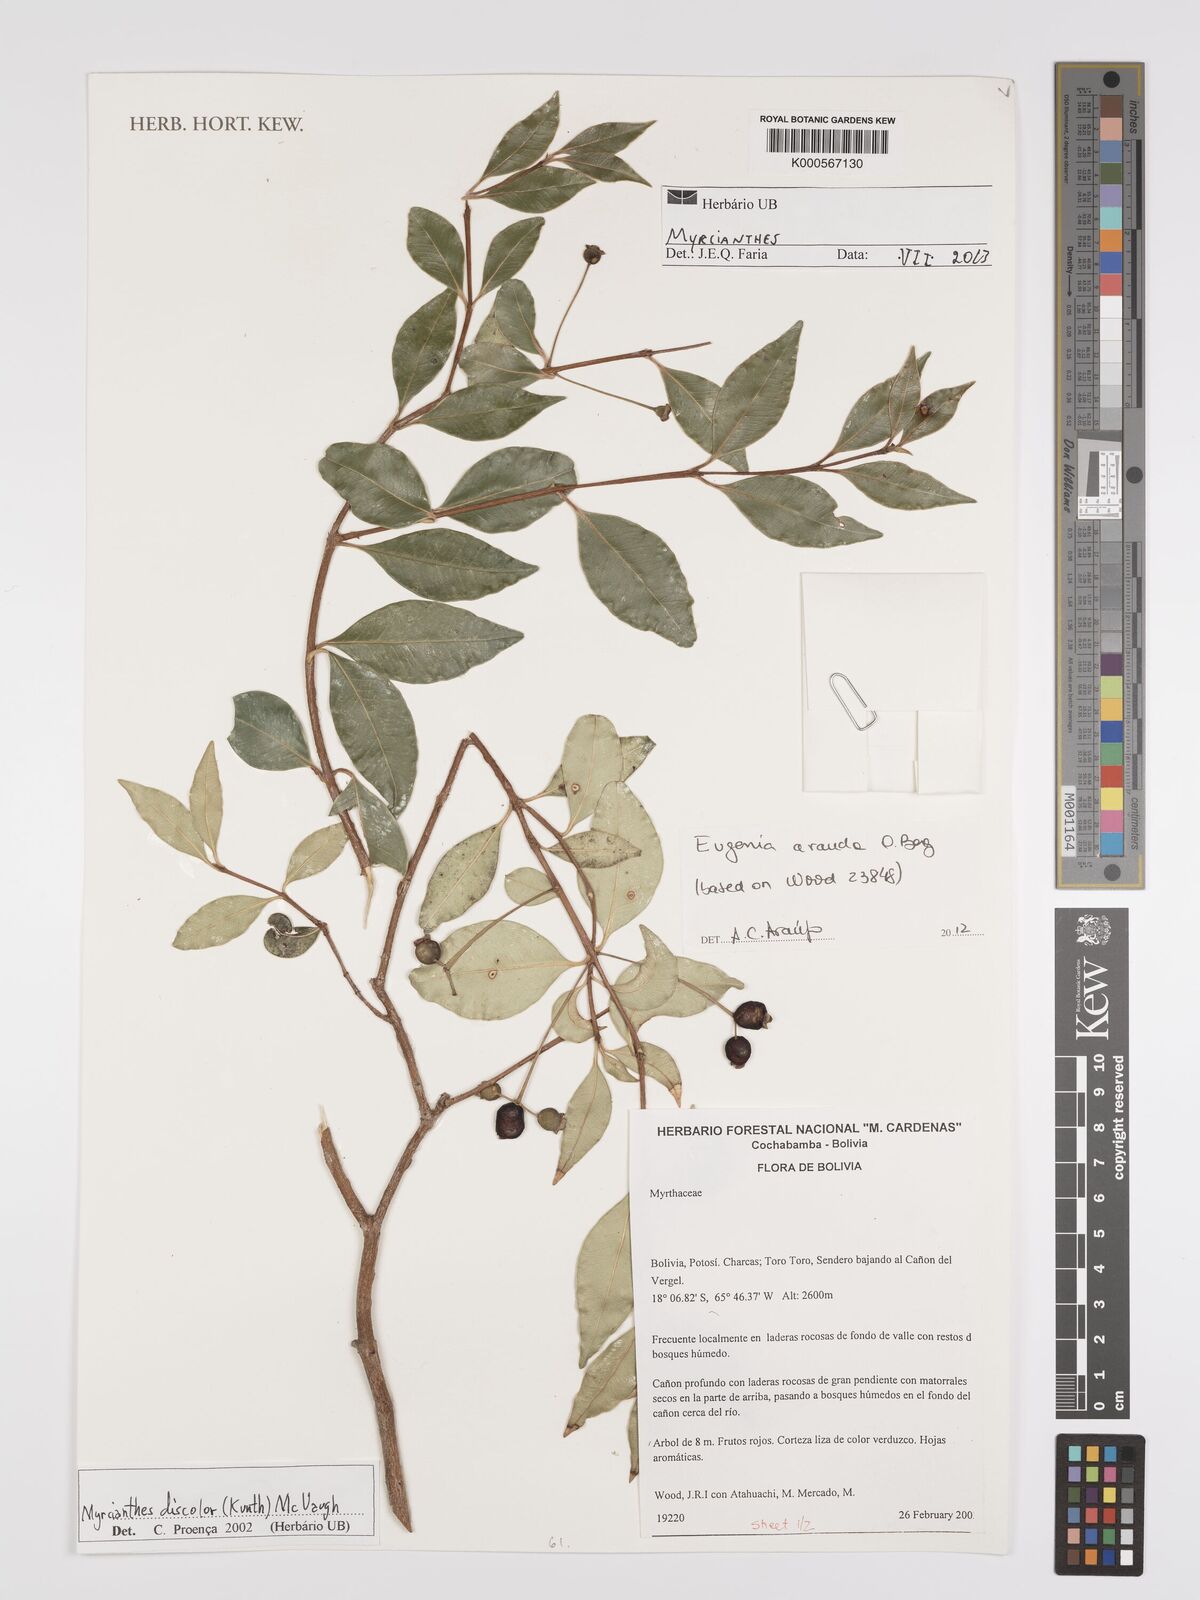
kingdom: Plantae
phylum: Tracheophyta
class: Magnoliopsida
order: Myrtales
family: Myrtaceae
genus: Myrcianthes
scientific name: Myrcianthes
